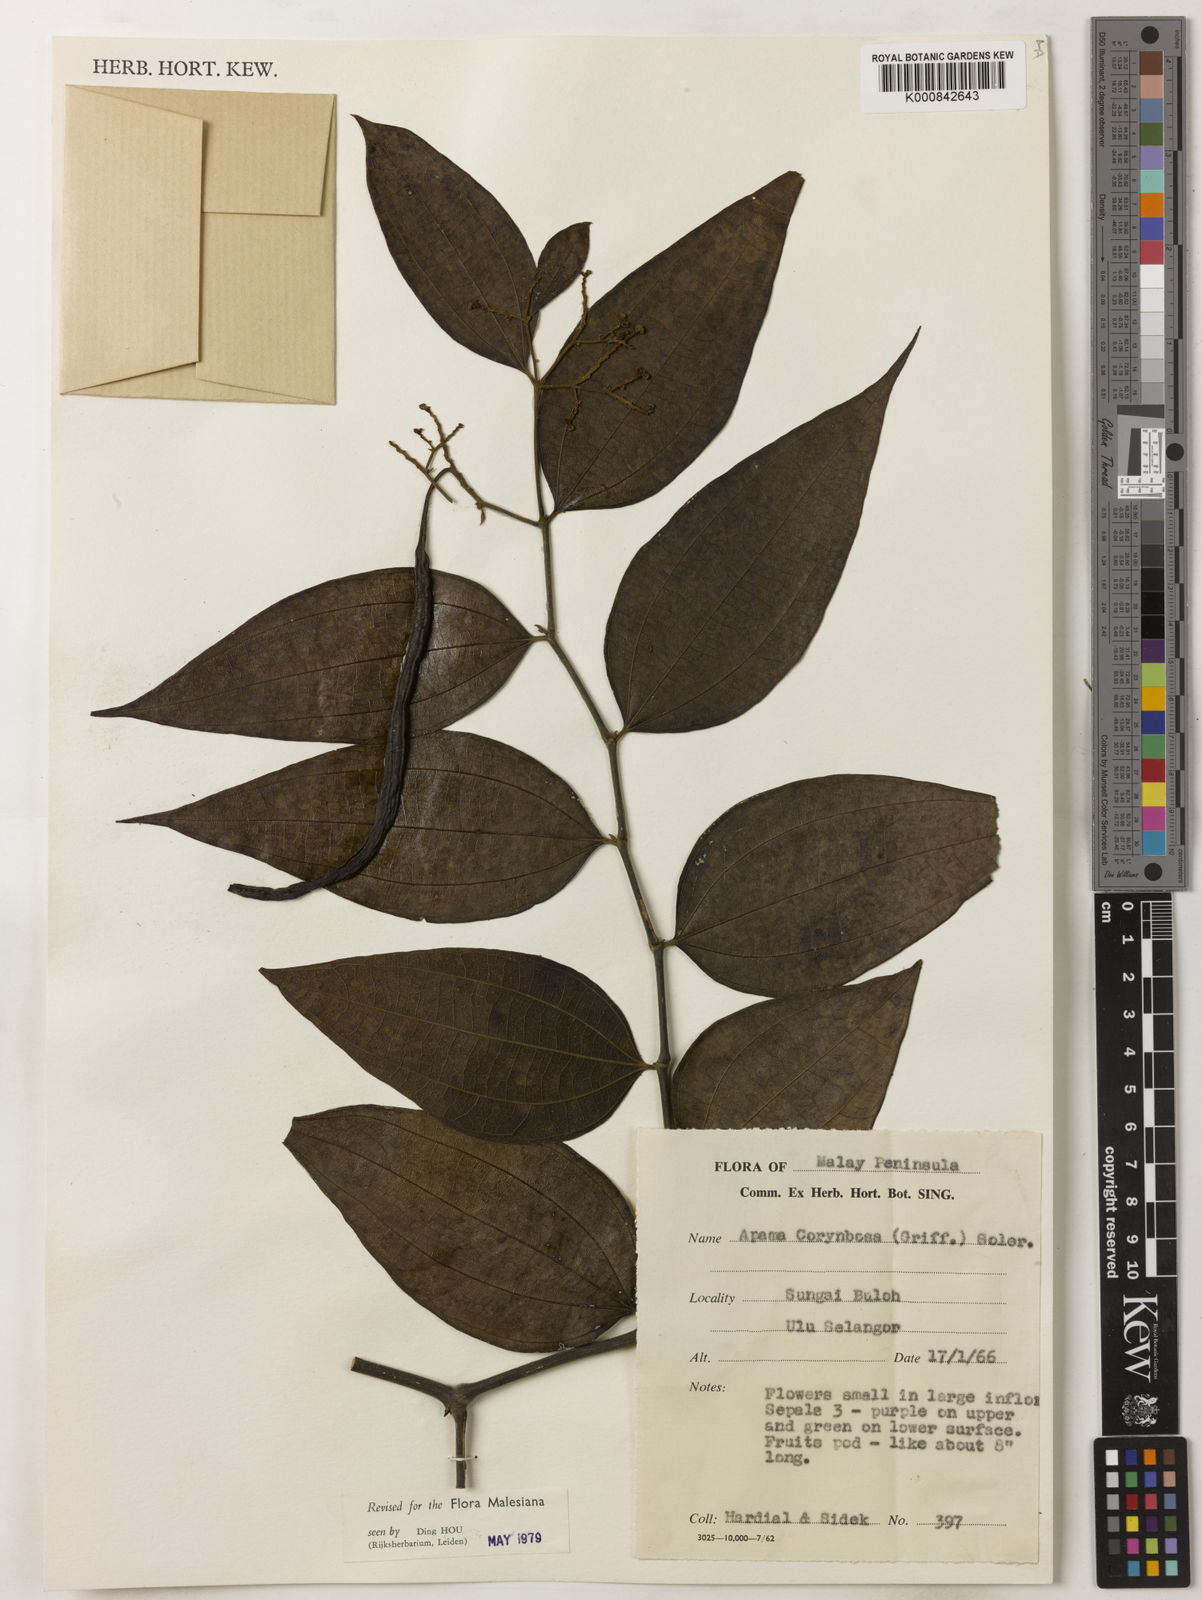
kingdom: Plantae
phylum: Tracheophyta
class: Magnoliopsida
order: Piperales
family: Aristolochiaceae
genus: Thottea
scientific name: Thottea piperiformis
